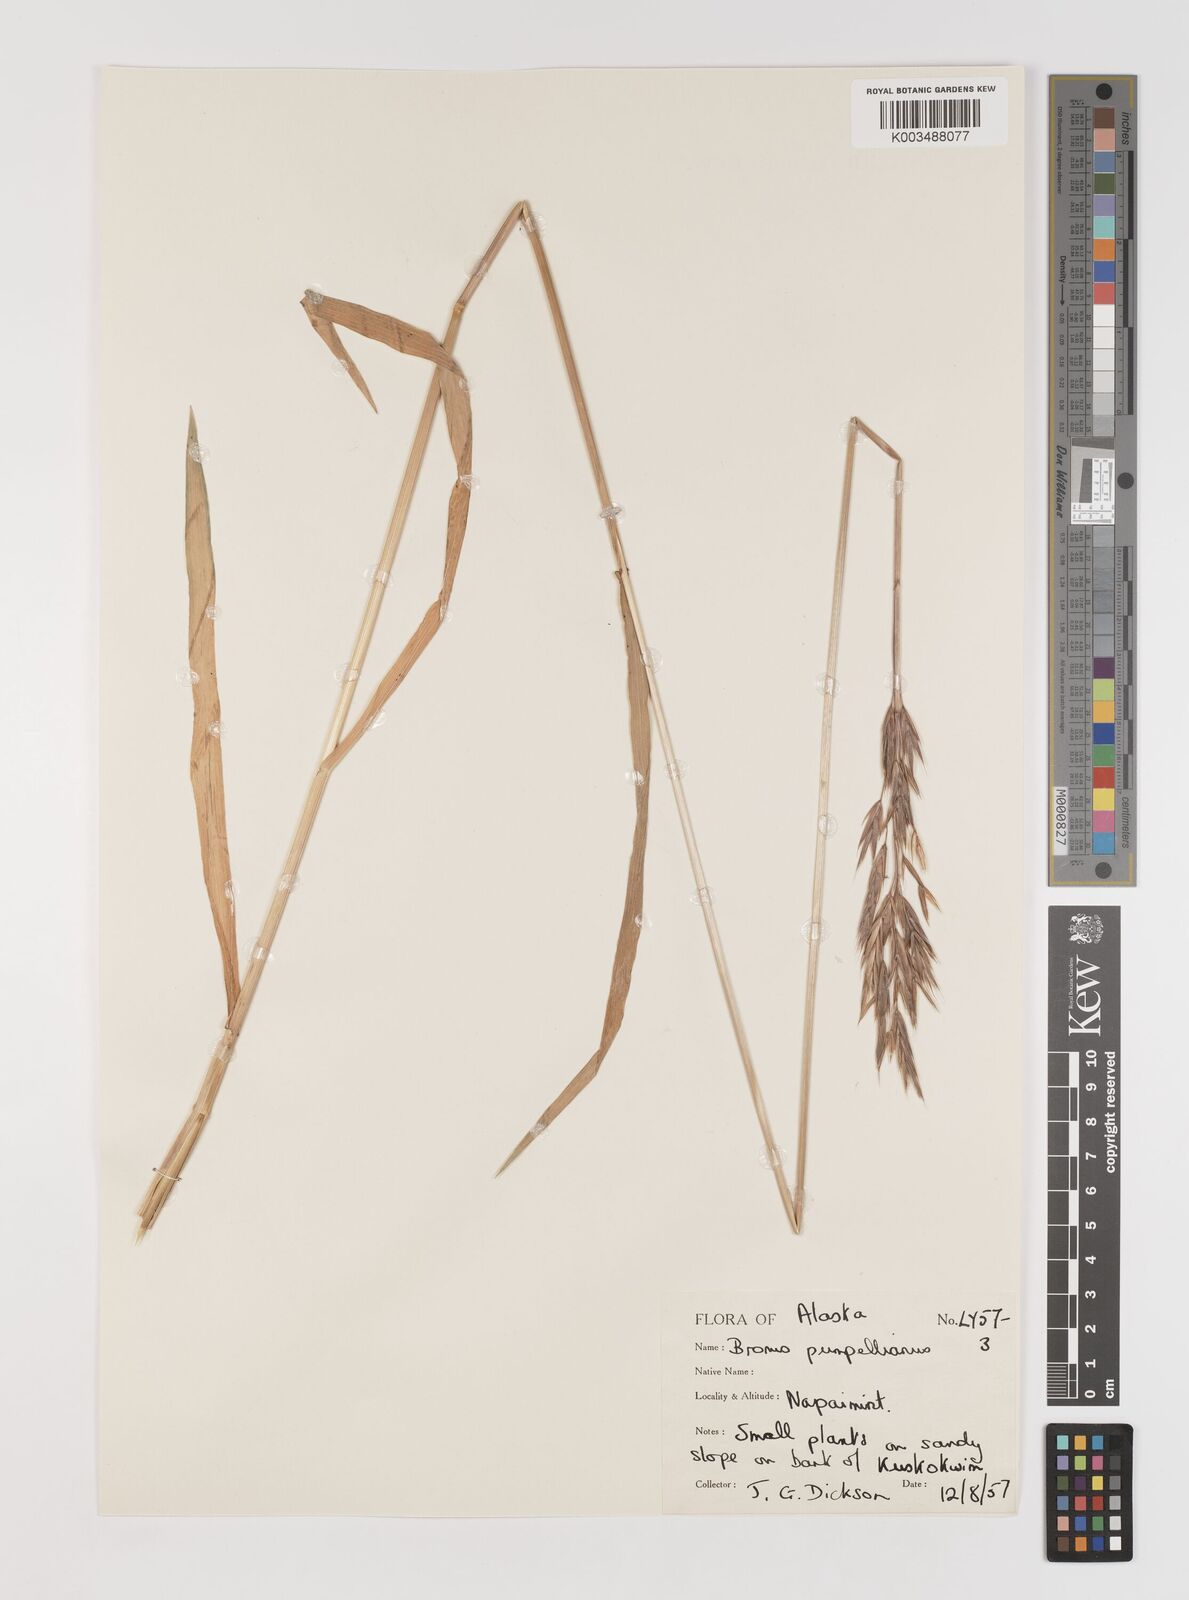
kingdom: Plantae
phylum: Tracheophyta
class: Liliopsida
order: Poales
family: Poaceae
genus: Bromus
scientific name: Bromus pumpellianus
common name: Pumpelly's brome
